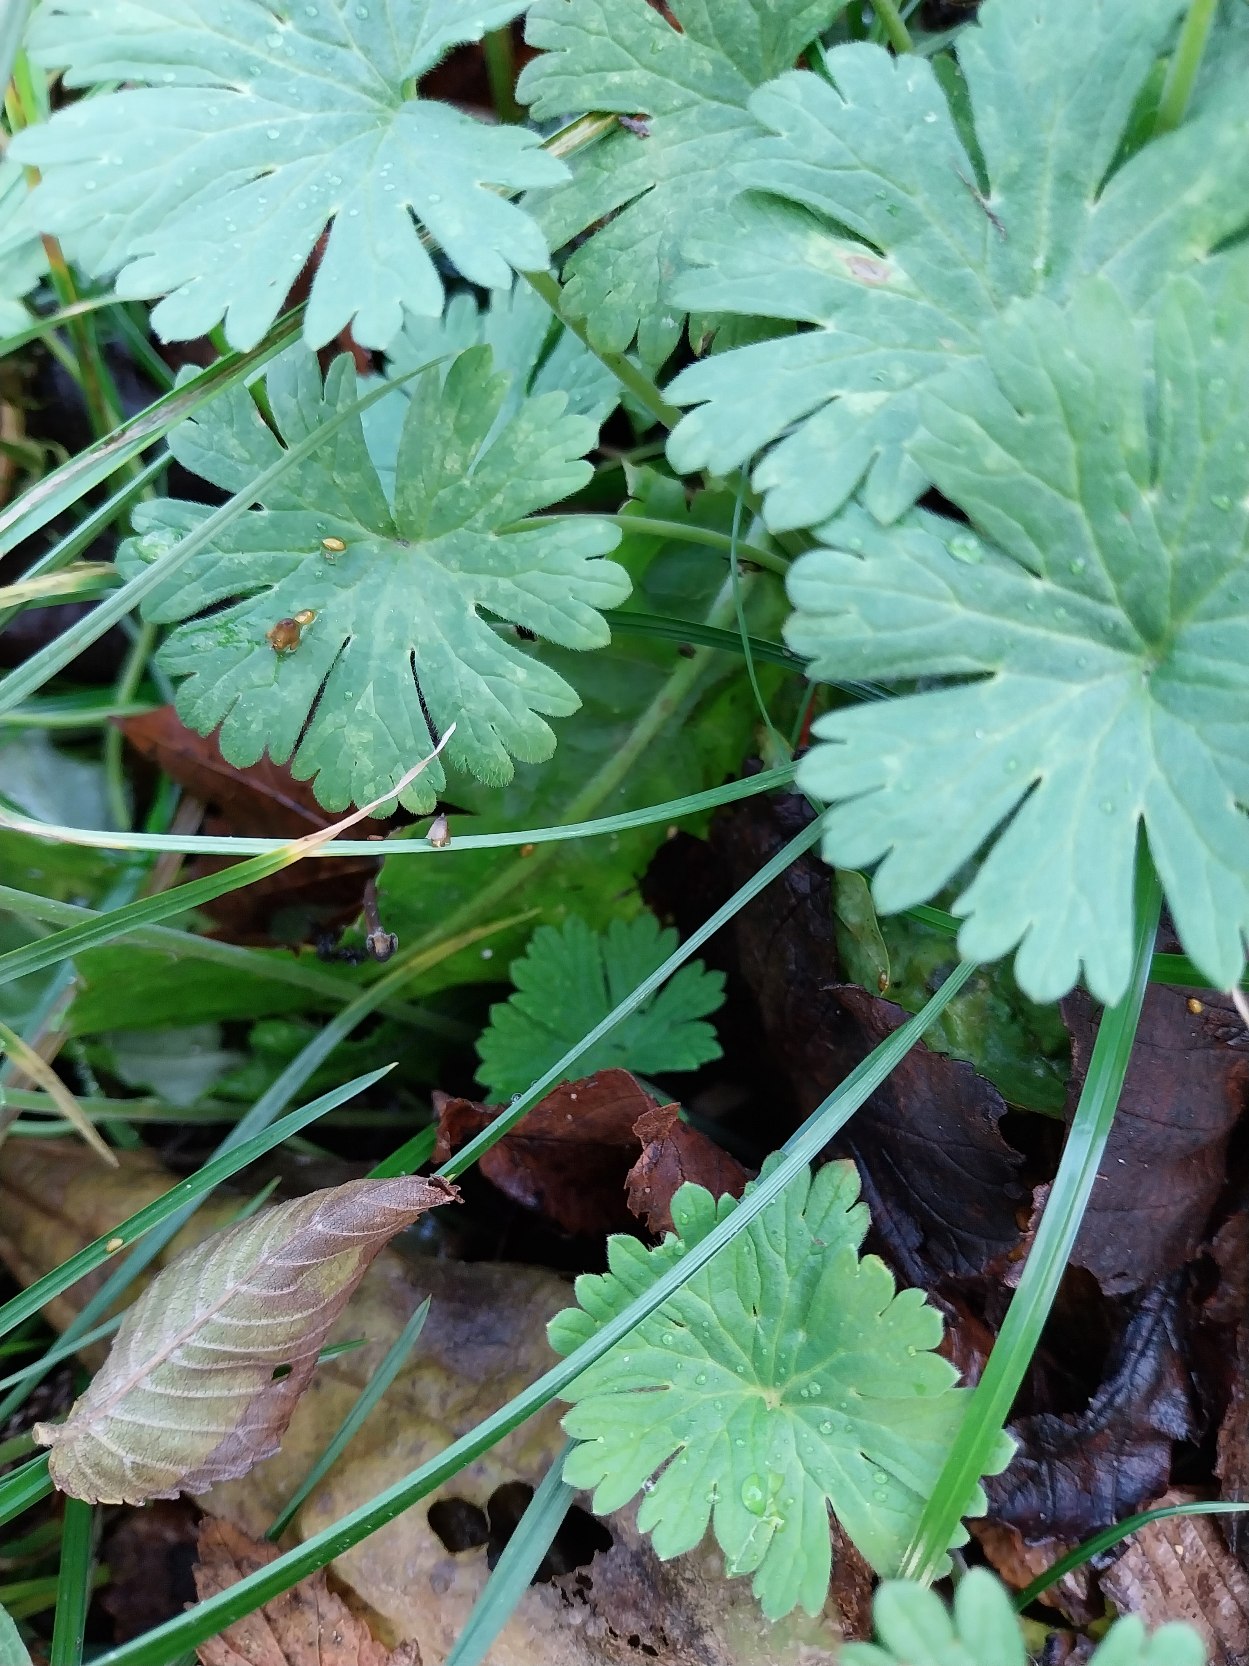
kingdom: Plantae
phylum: Tracheophyta
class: Magnoliopsida
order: Geraniales
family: Geraniaceae
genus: Geranium
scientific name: Geranium pusillum
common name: Liden storkenæb
